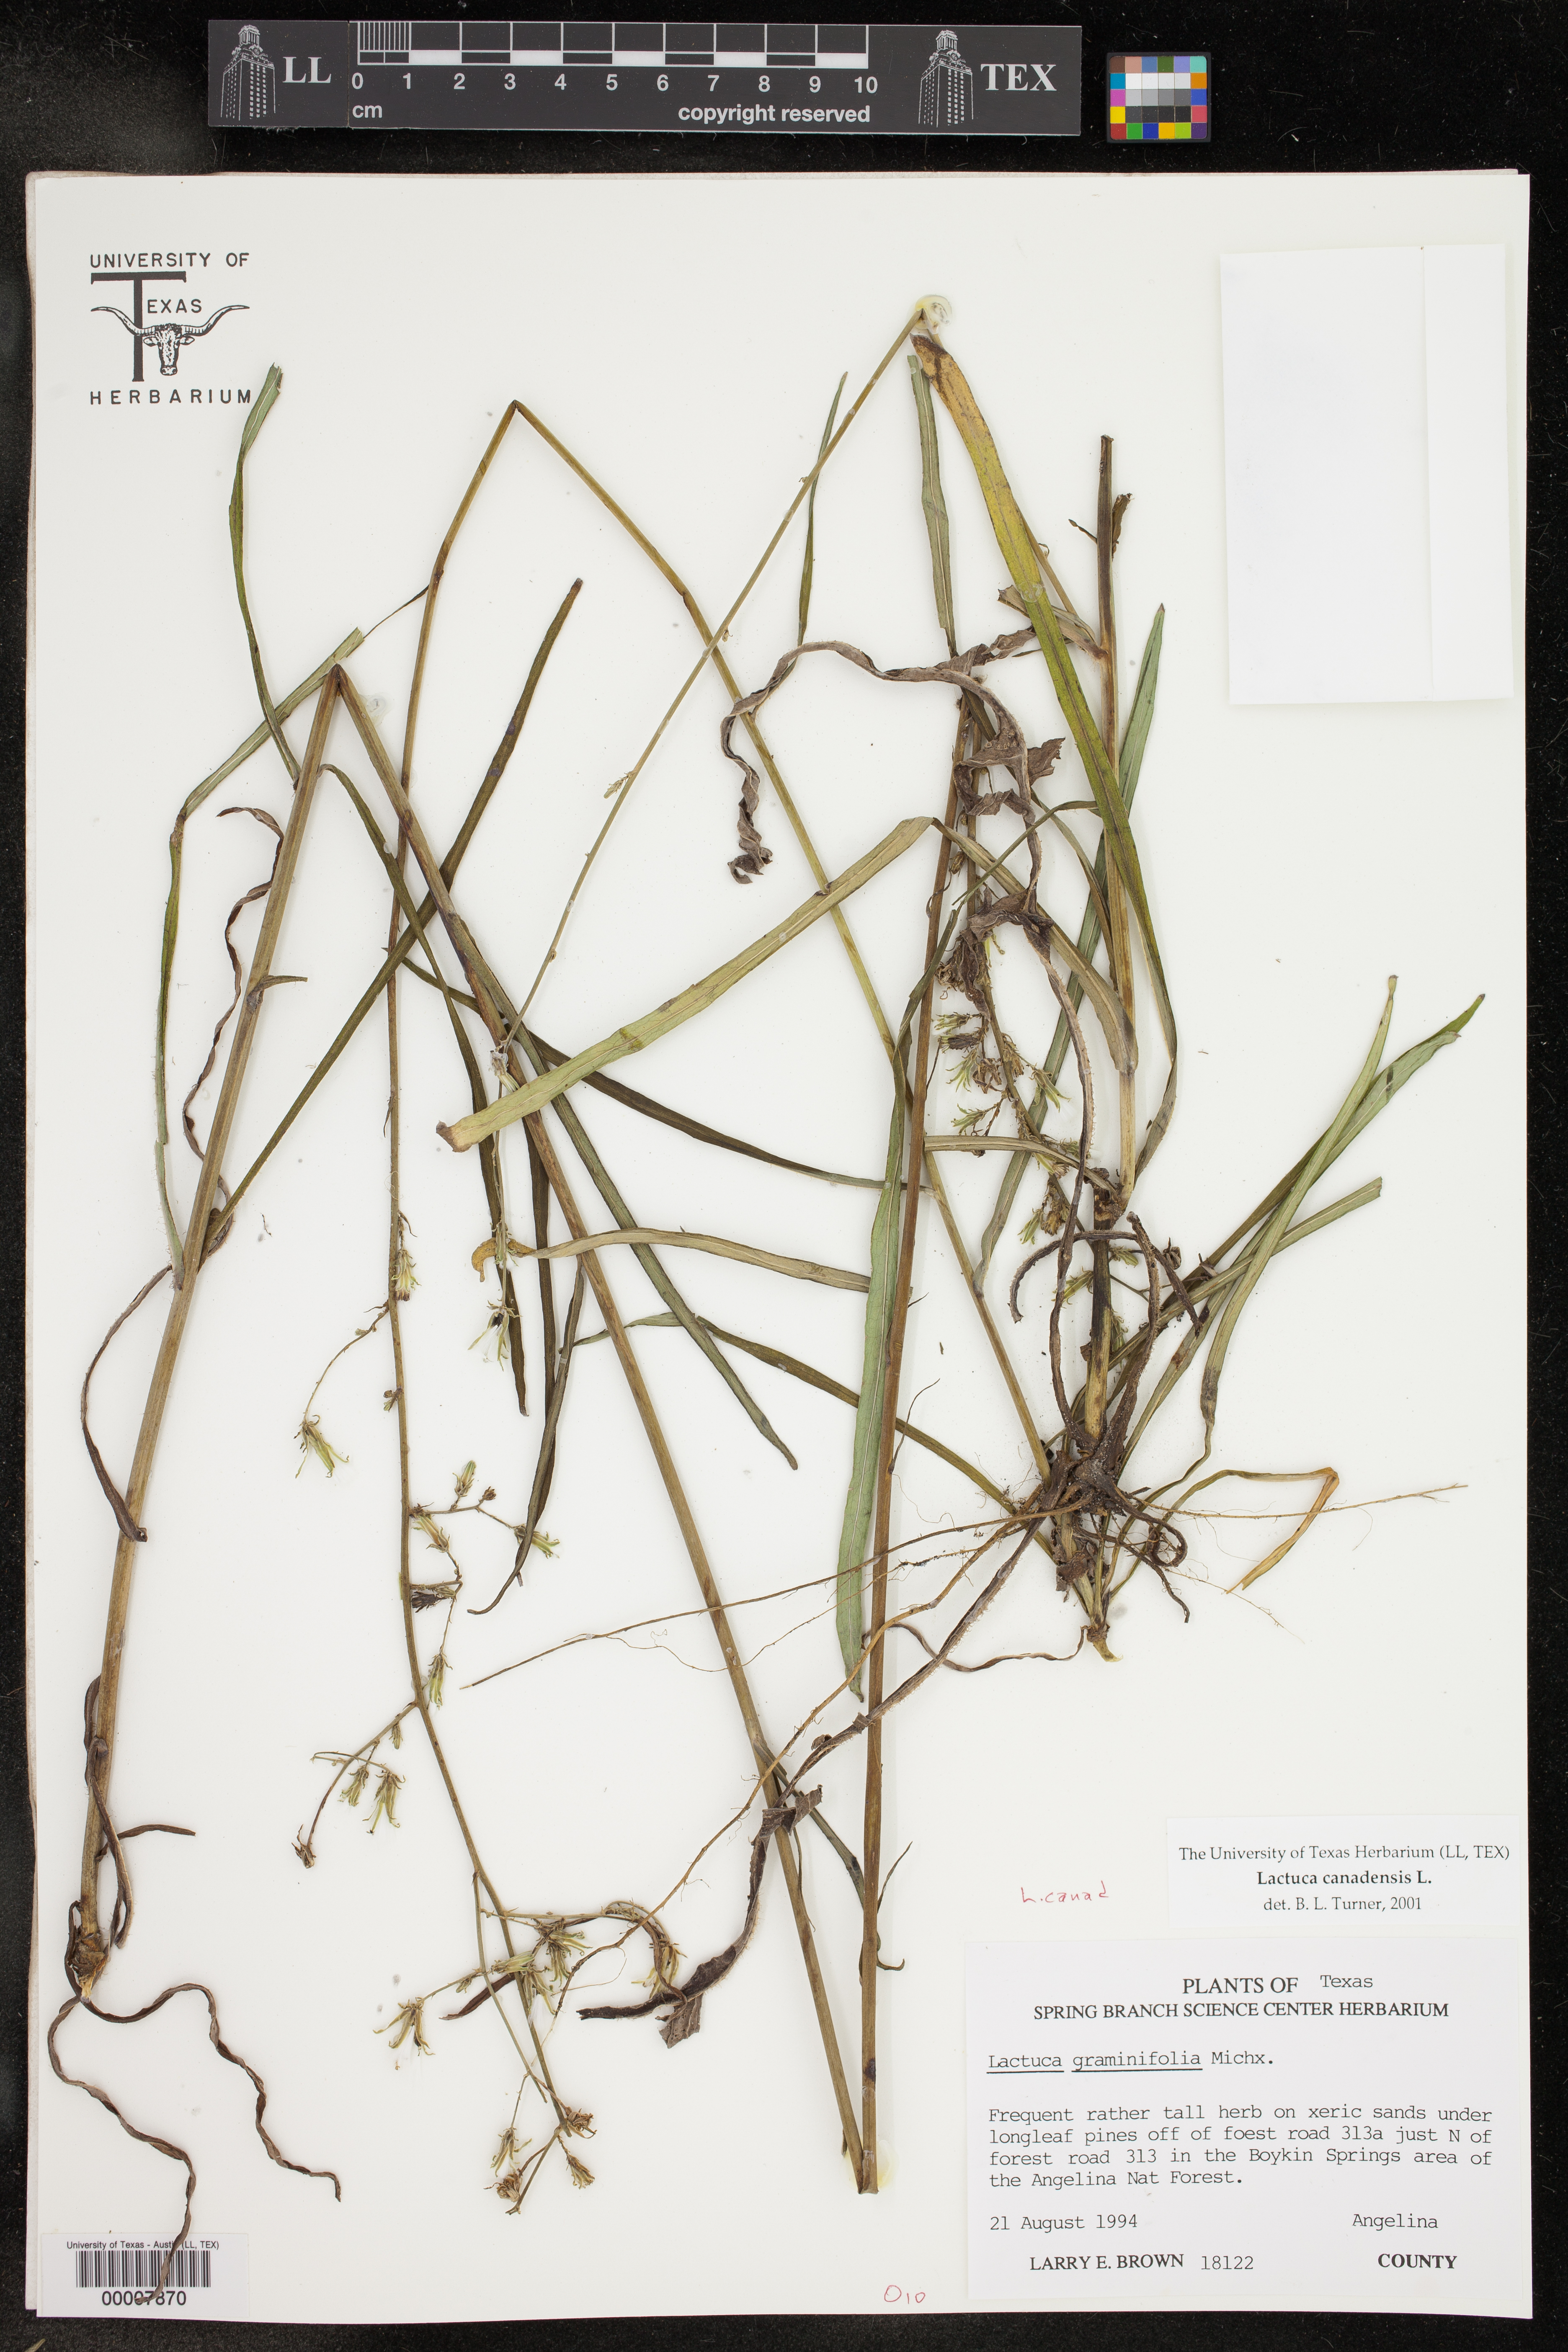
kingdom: Plantae
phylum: Tracheophyta
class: Magnoliopsida
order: Asterales
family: Asteraceae
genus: Lactuca
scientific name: Lactuca graminifolia
